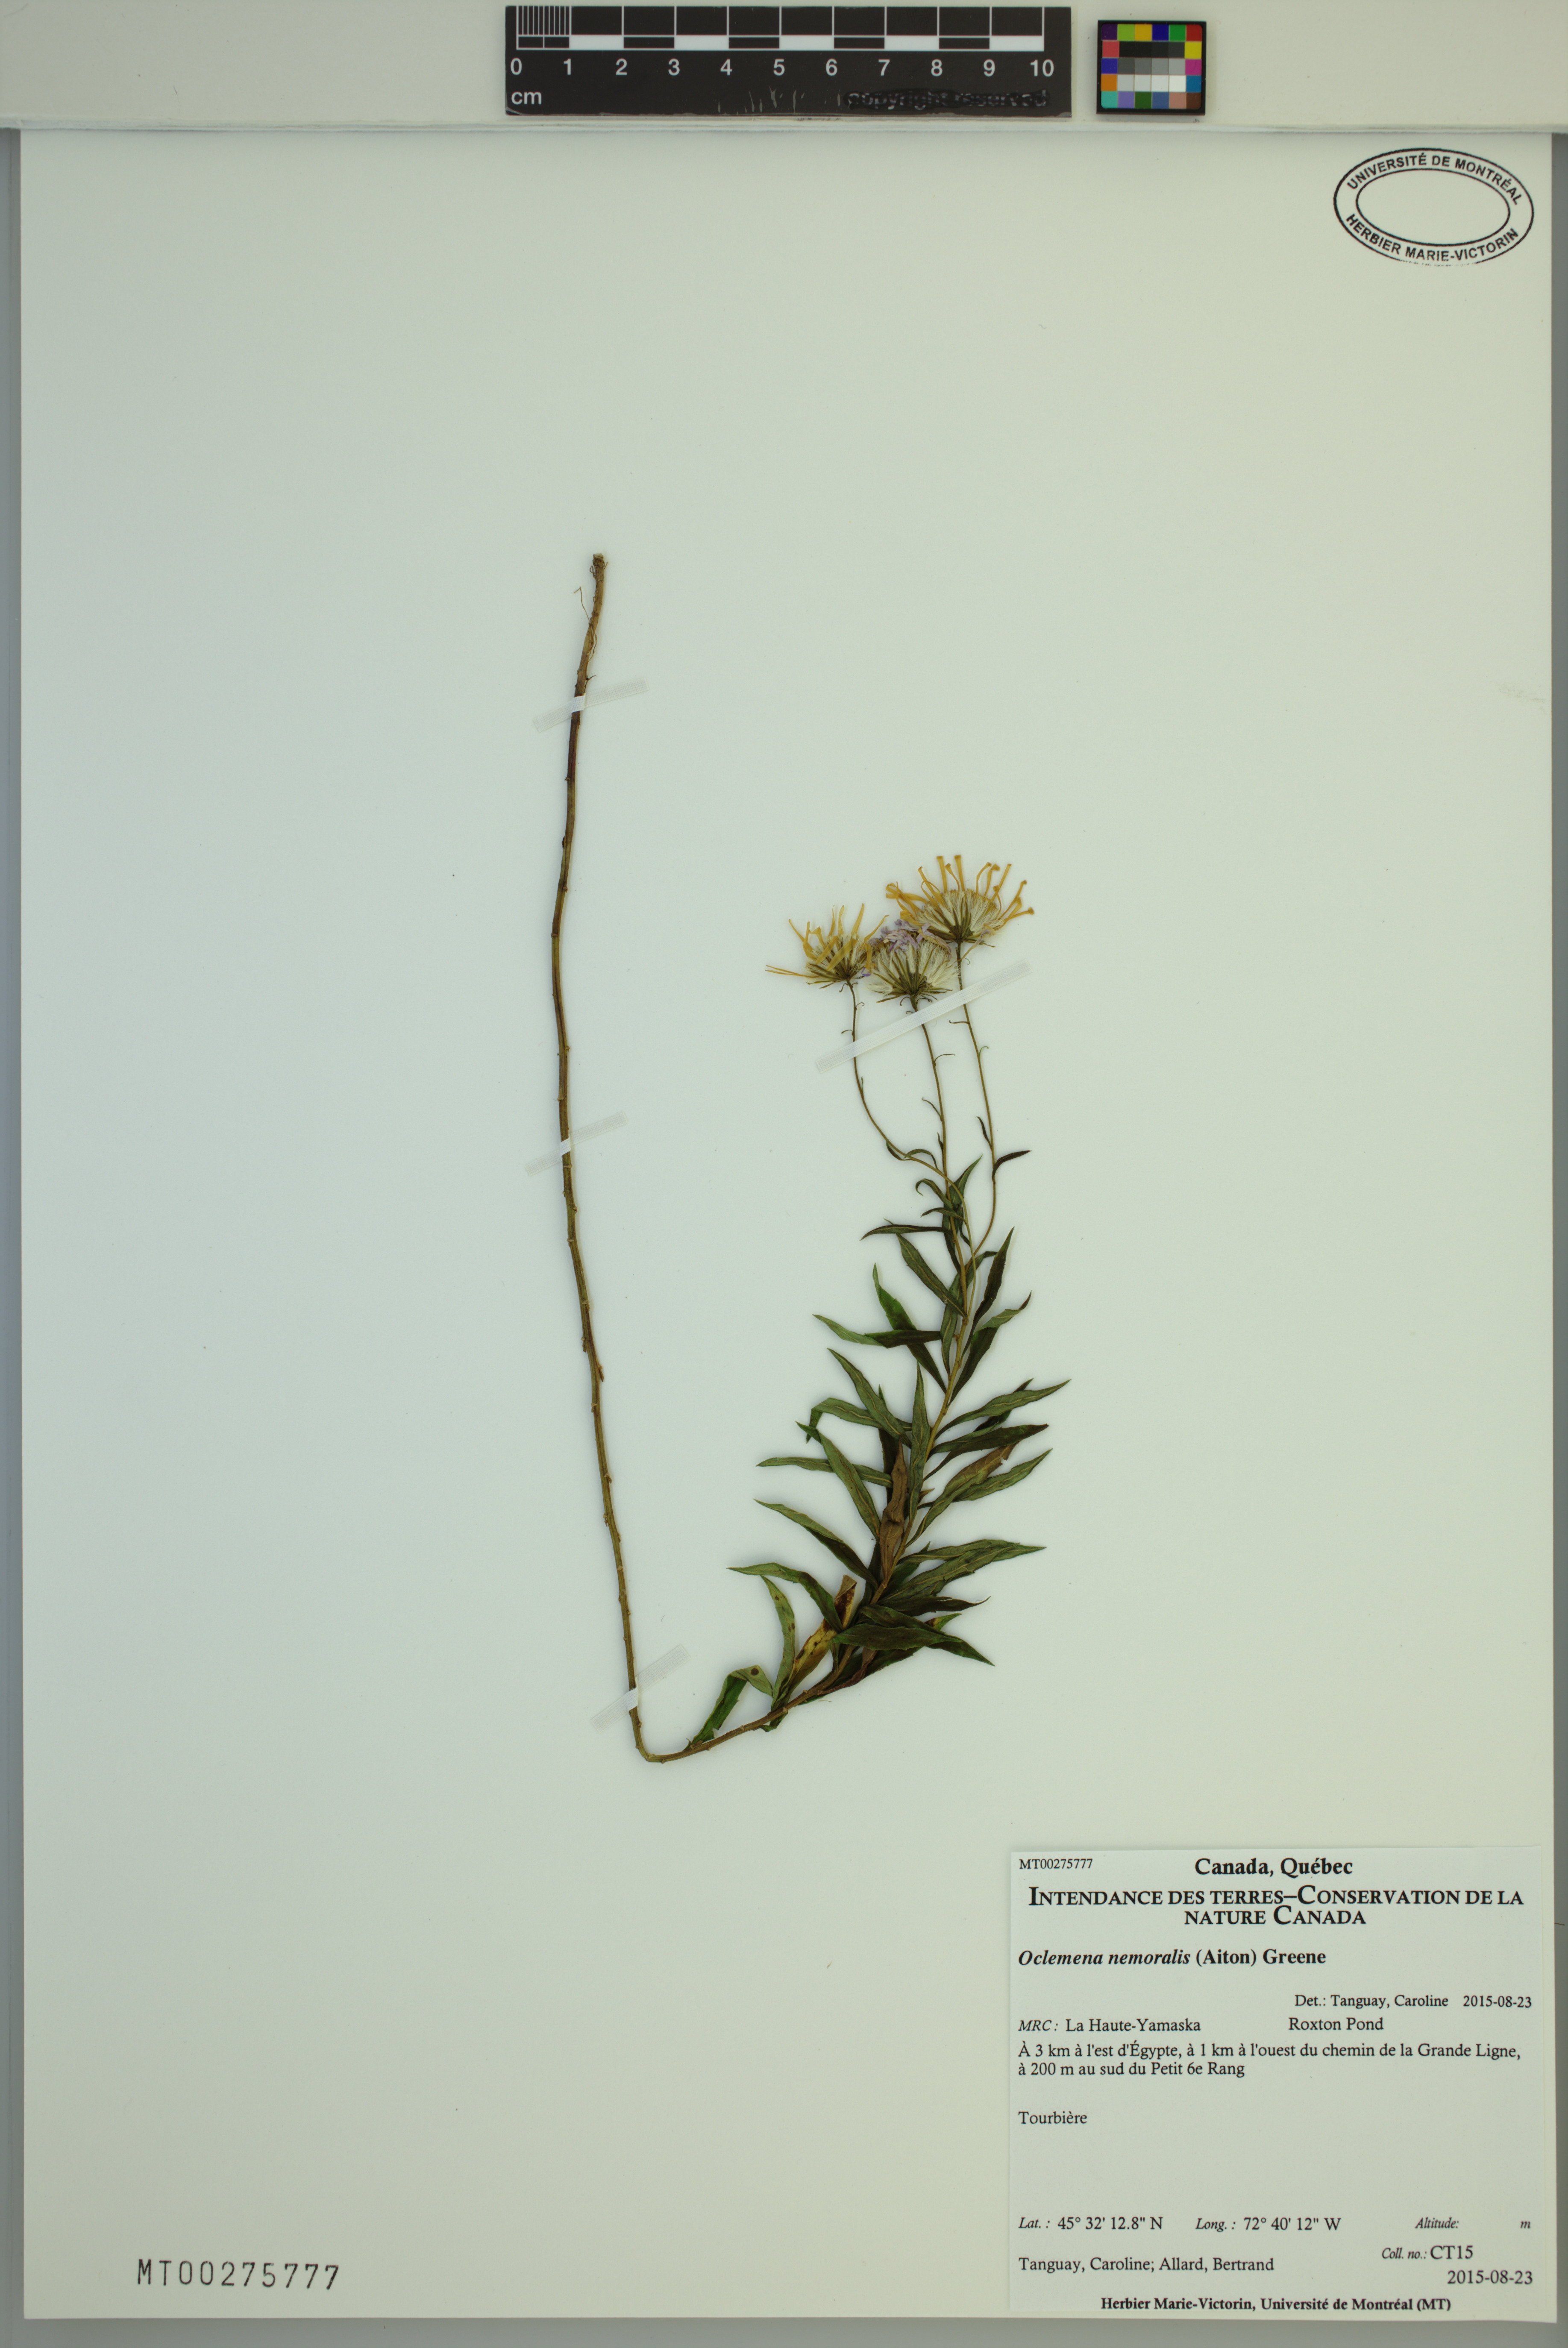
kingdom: Plantae
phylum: Tracheophyta
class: Magnoliopsida
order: Asterales
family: Asteraceae
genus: Oclemena
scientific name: Oclemena nemoralis
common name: Bog aster
